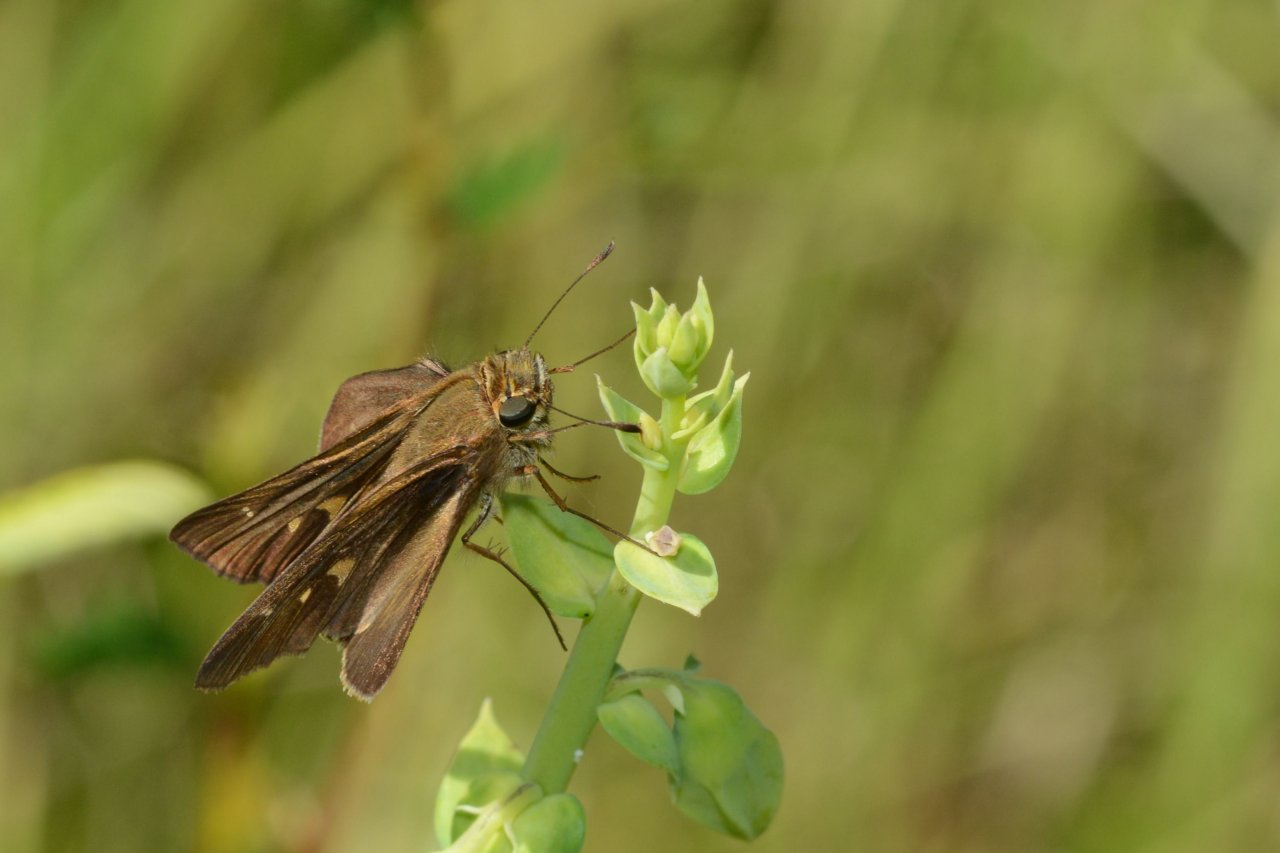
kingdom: Animalia
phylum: Arthropoda
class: Insecta
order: Lepidoptera
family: Hesperiidae
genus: Panoquina
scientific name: Panoquina ocola
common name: Ocola Skipper
